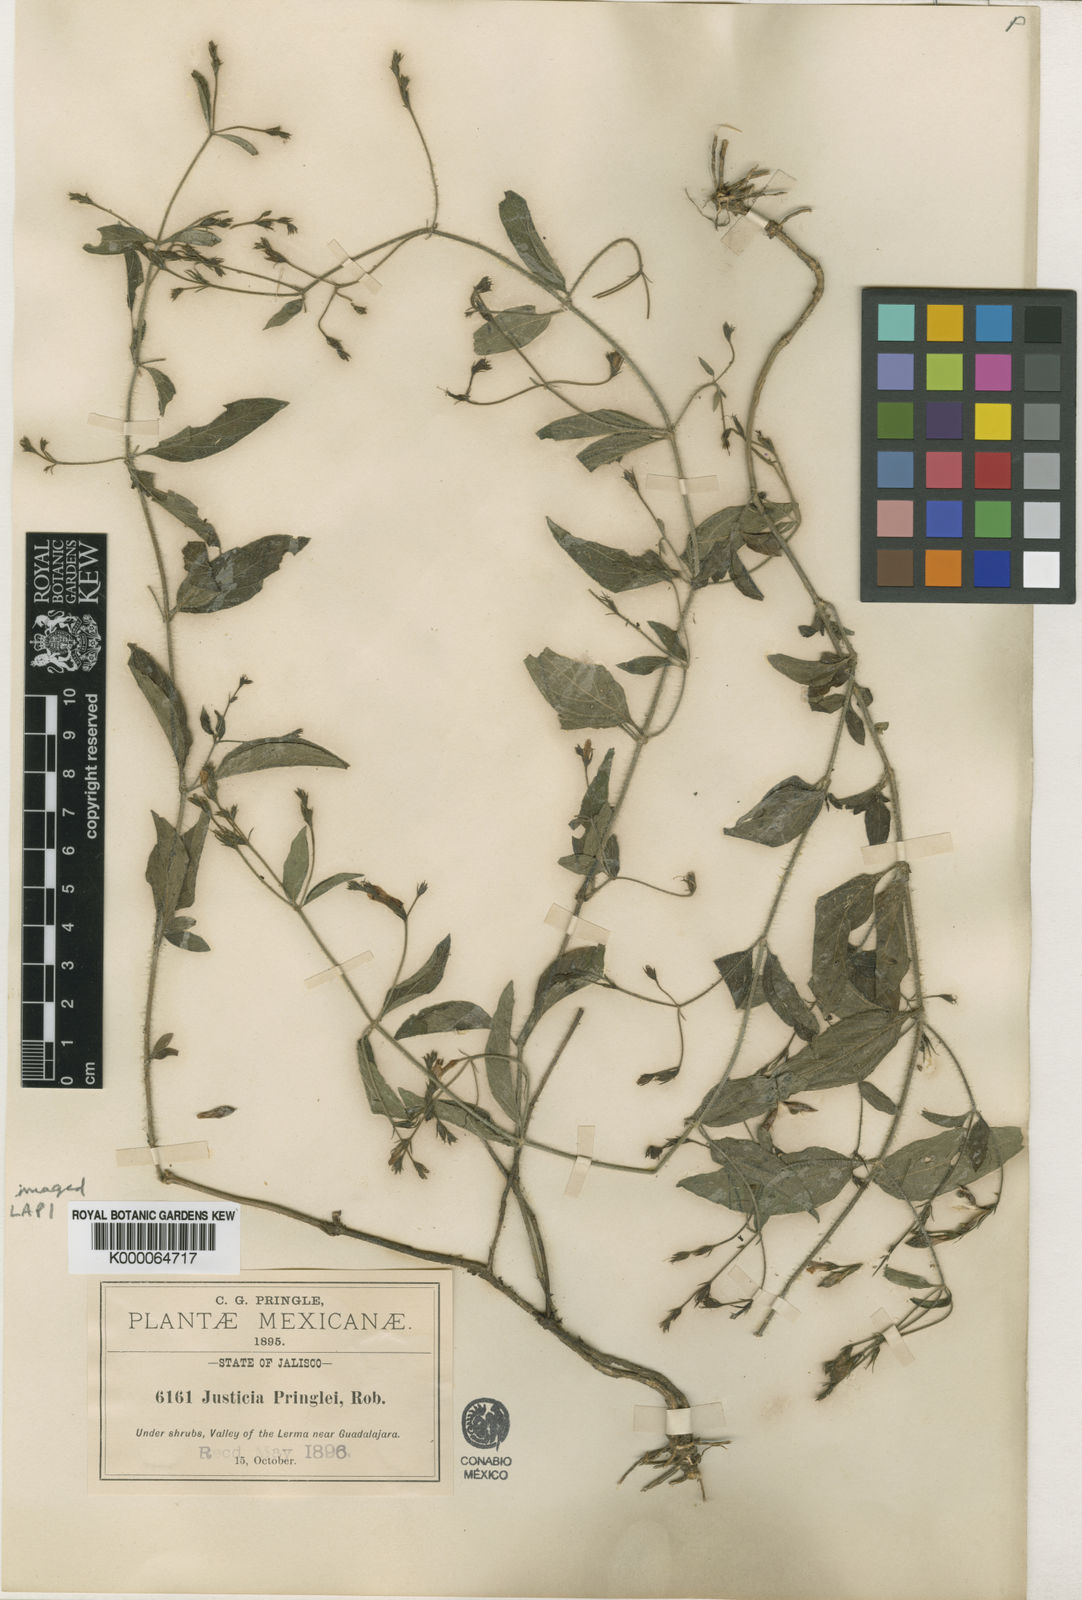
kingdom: Plantae
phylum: Tracheophyta
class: Magnoliopsida
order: Lamiales
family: Acanthaceae
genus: Justicia
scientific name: Justicia pringlei
